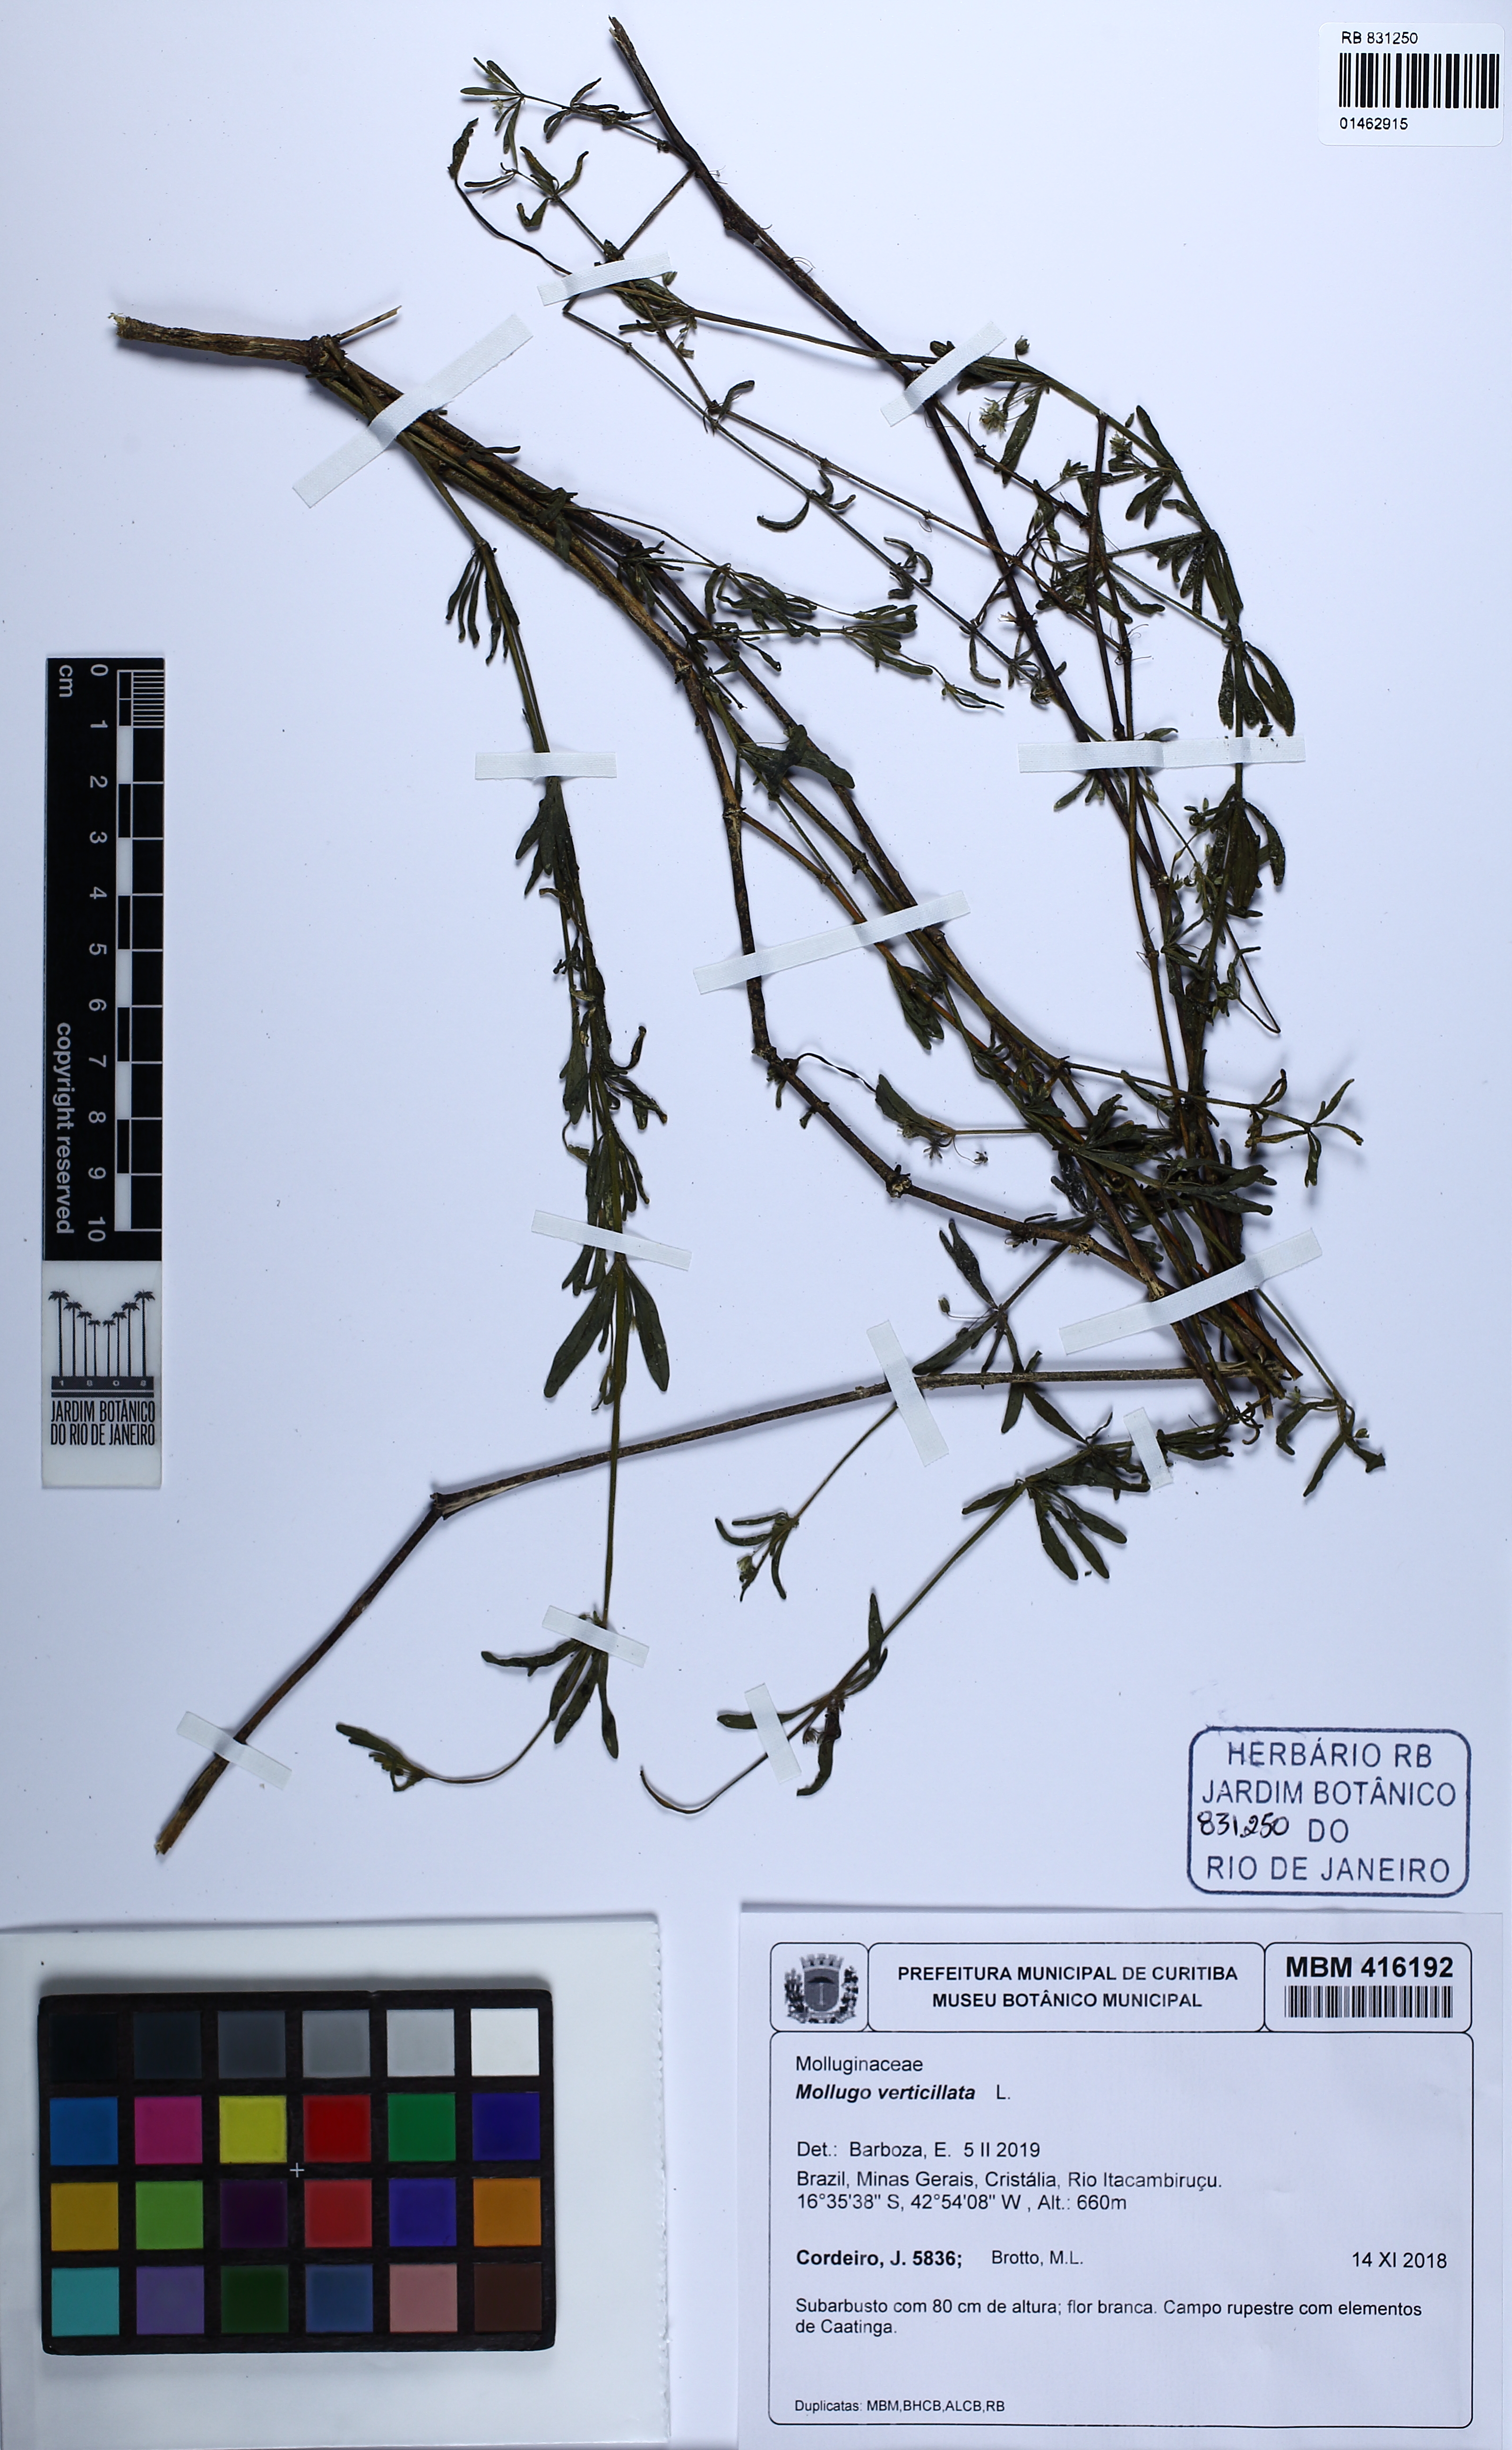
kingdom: Plantae
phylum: Tracheophyta
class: Magnoliopsida
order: Caryophyllales
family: Molluginaceae
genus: Mollugo
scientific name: Mollugo verticillata
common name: Green carpetweed
